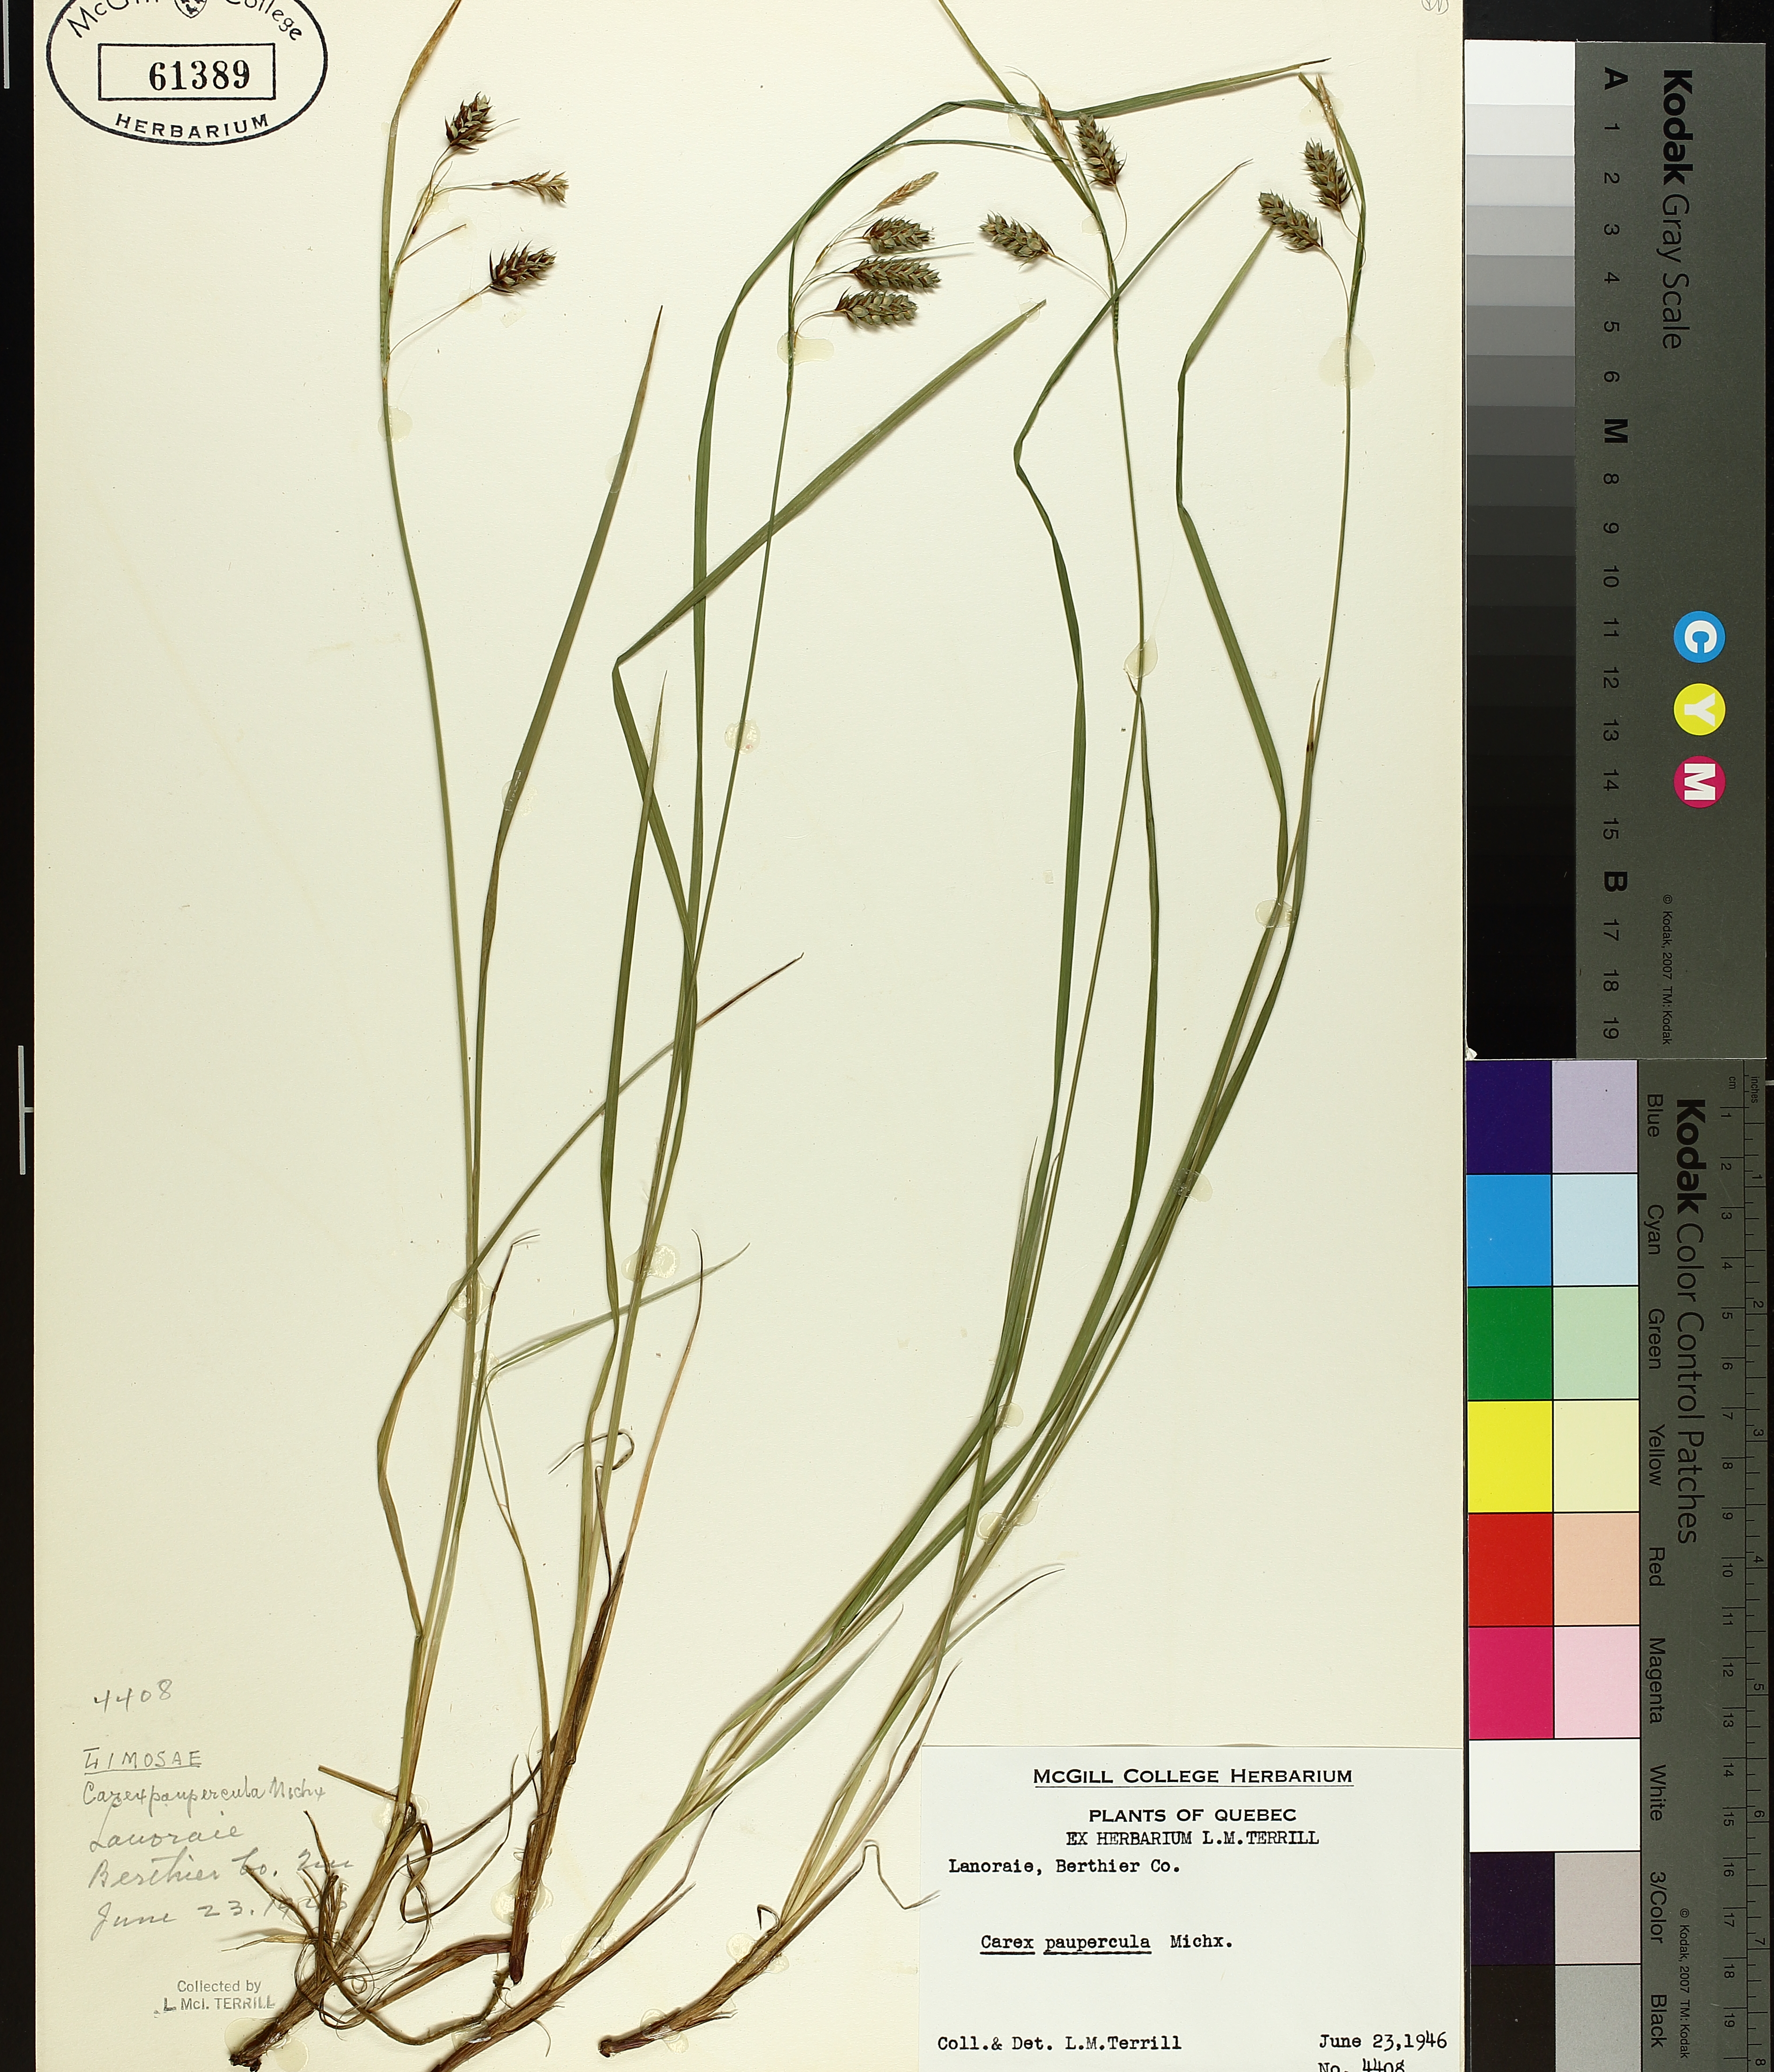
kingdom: Plantae
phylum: Tracheophyta
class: Liliopsida
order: Poales
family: Cyperaceae
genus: Carex
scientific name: Carex magellanica
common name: Bog sedge
